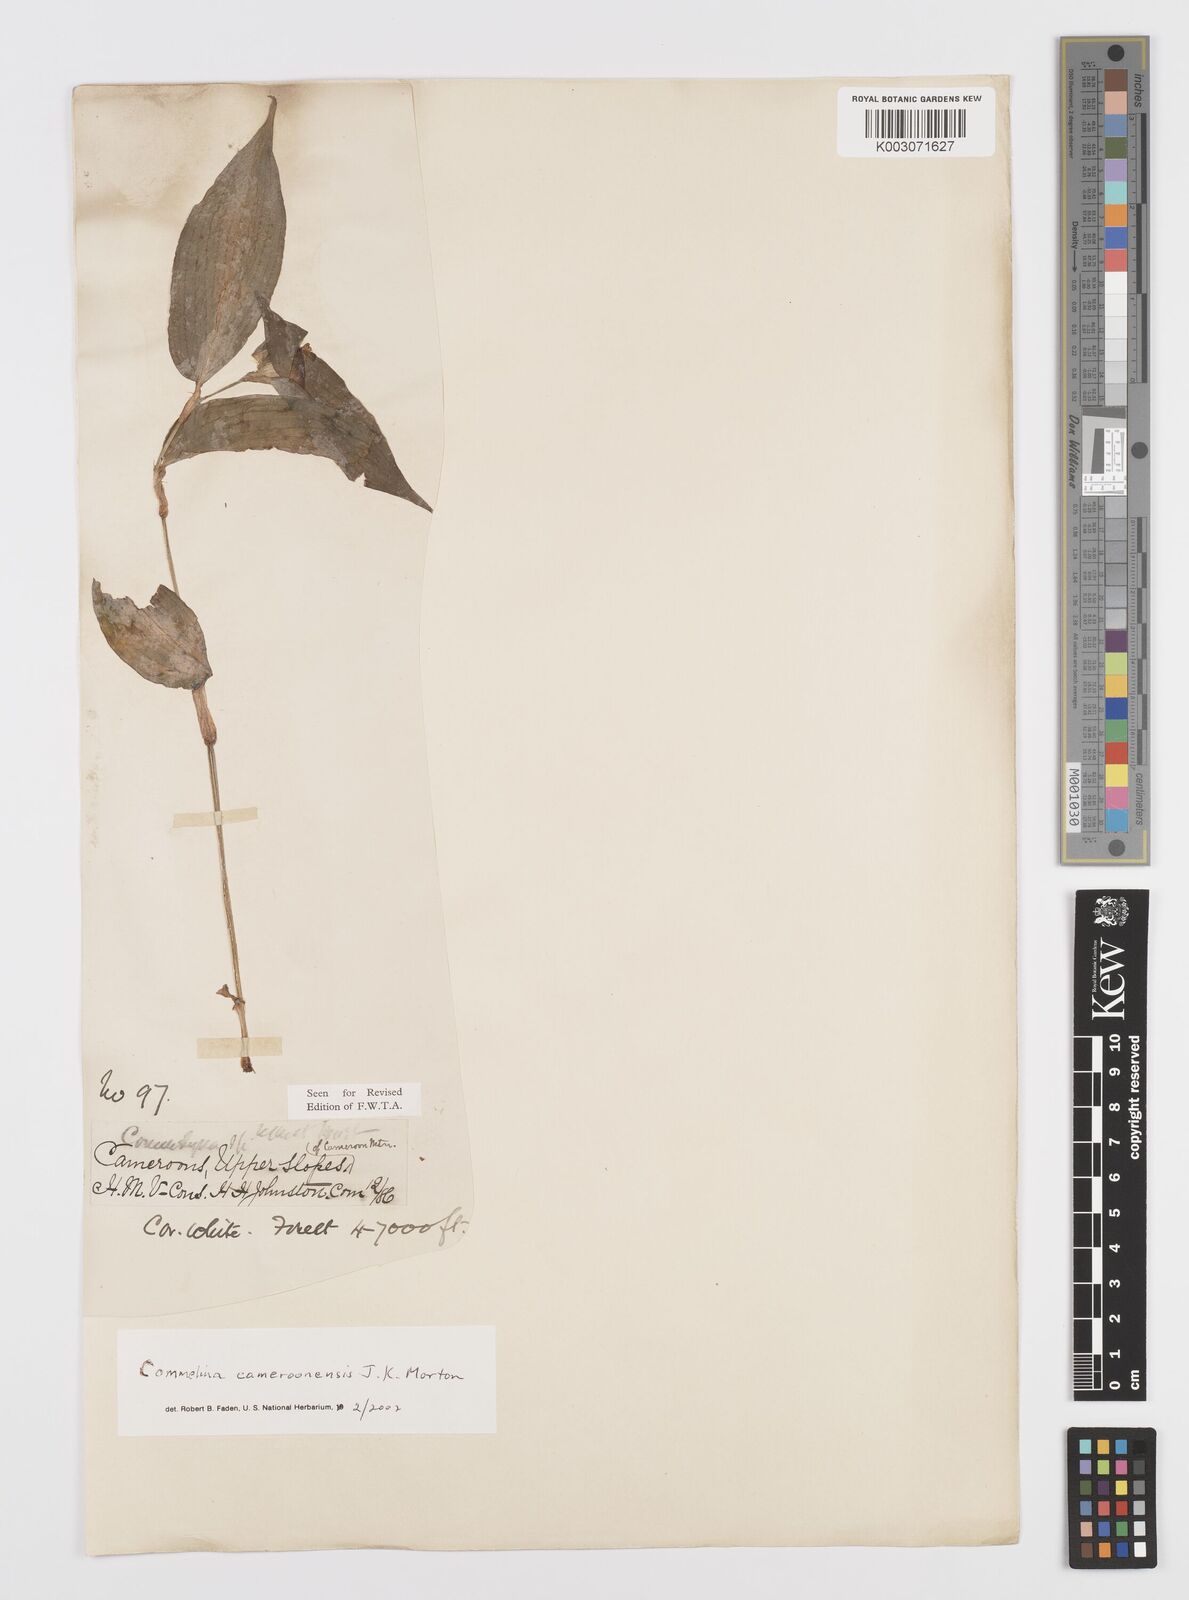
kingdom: Plantae
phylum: Tracheophyta
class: Liliopsida
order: Commelinales
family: Commelinaceae
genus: Commelina
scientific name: Commelina cameroonensis
